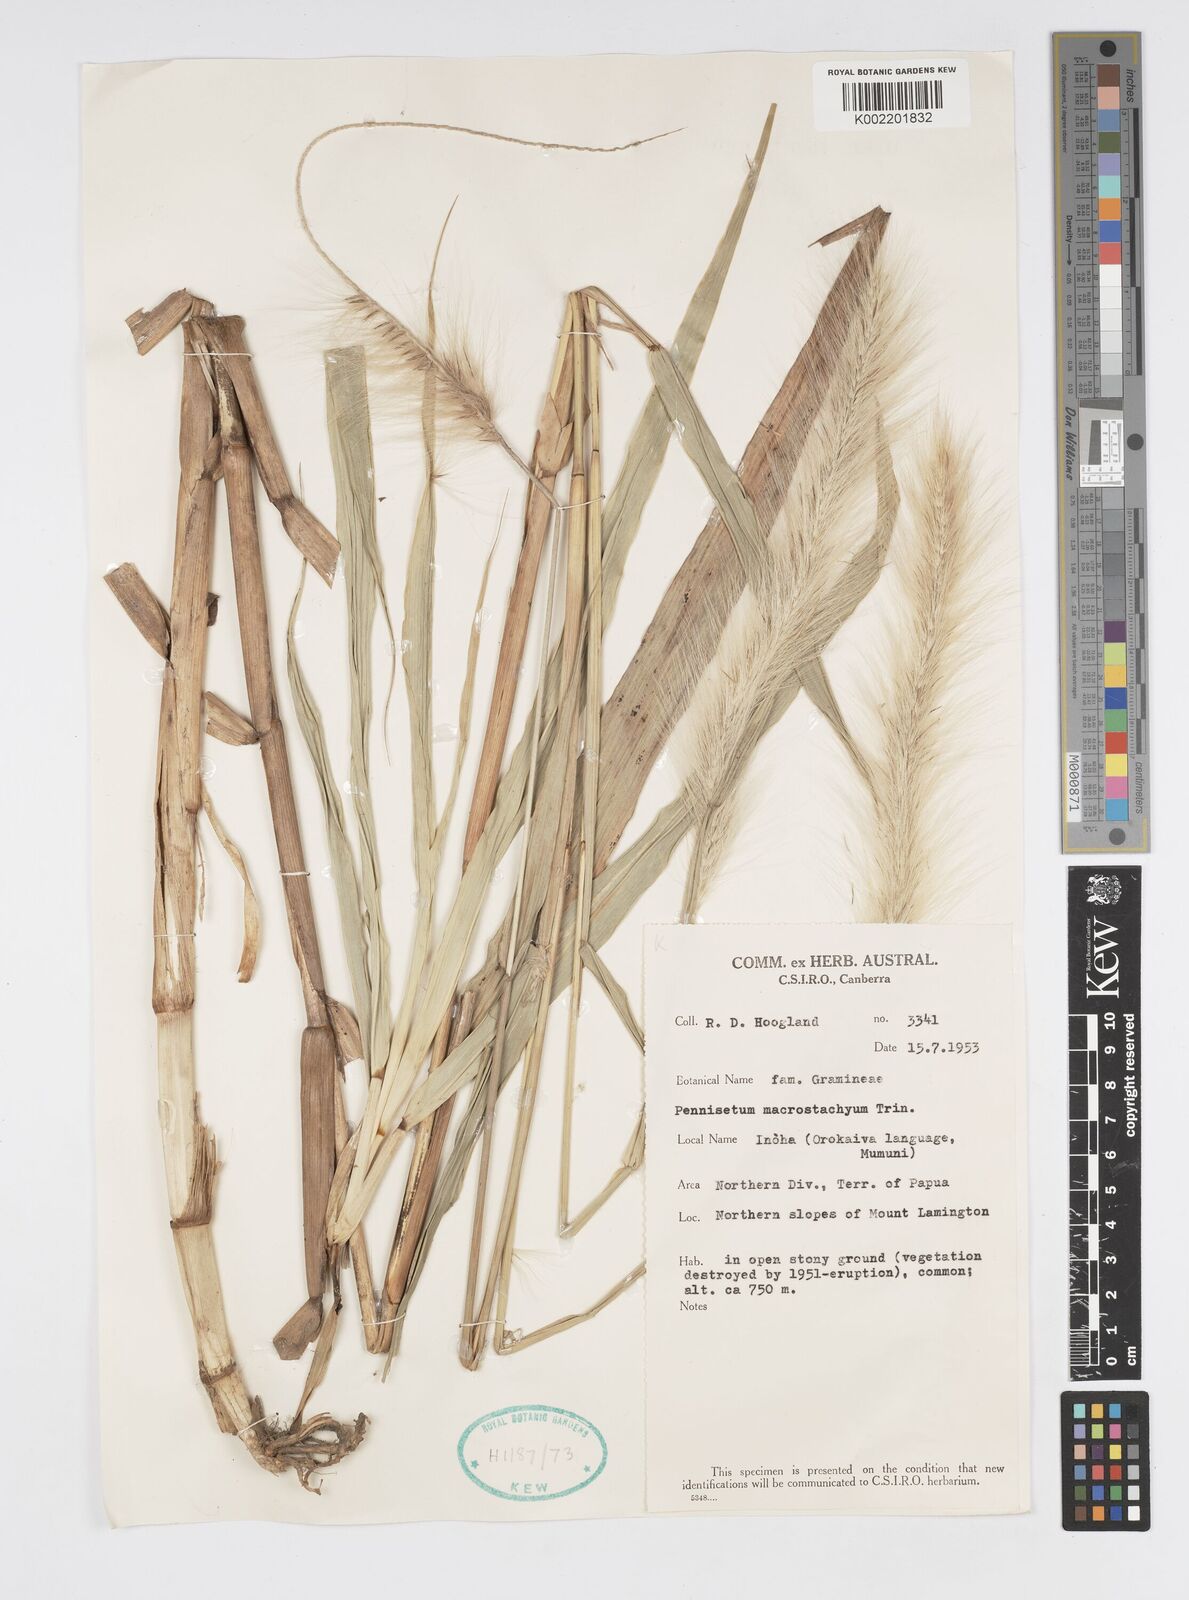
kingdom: Plantae
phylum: Tracheophyta
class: Liliopsida
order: Poales
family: Poaceae
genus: Cenchrus
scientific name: Cenchrus purpureus
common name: Elephant grass
